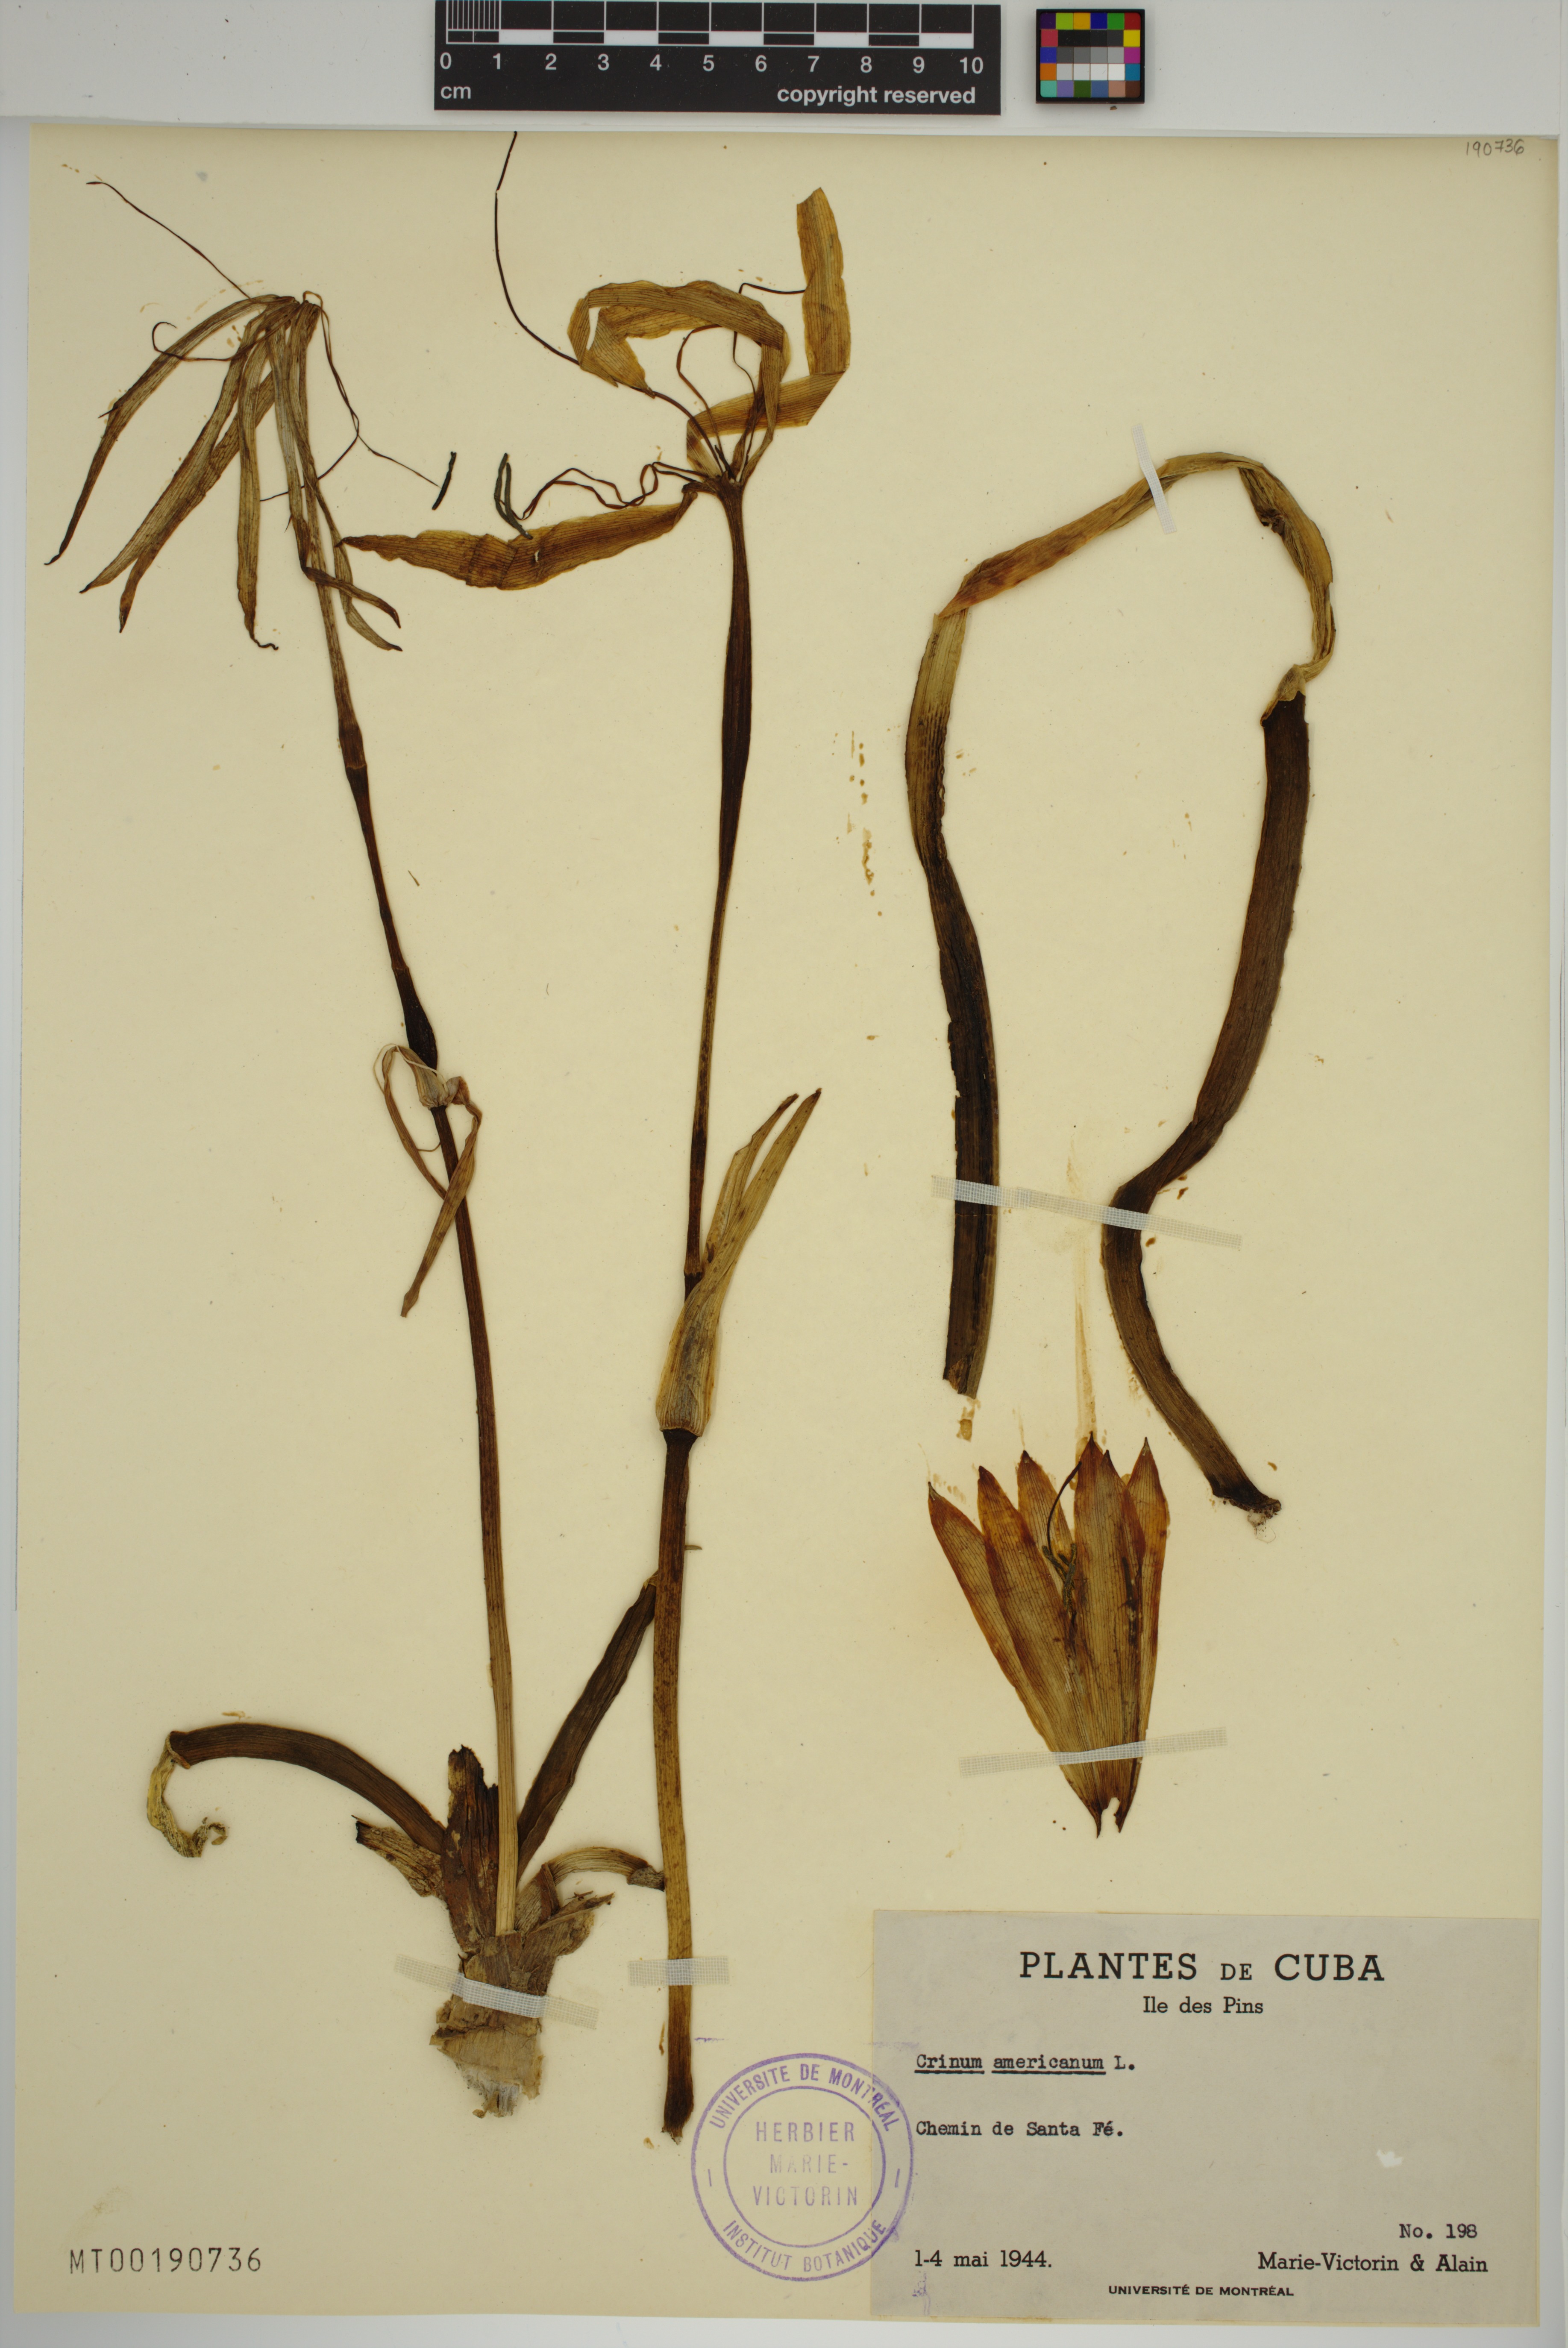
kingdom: Plantae
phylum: Tracheophyta
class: Liliopsida
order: Asparagales
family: Amaryllidaceae
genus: Crinum
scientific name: Crinum americanum
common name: Florida swamp-lily
